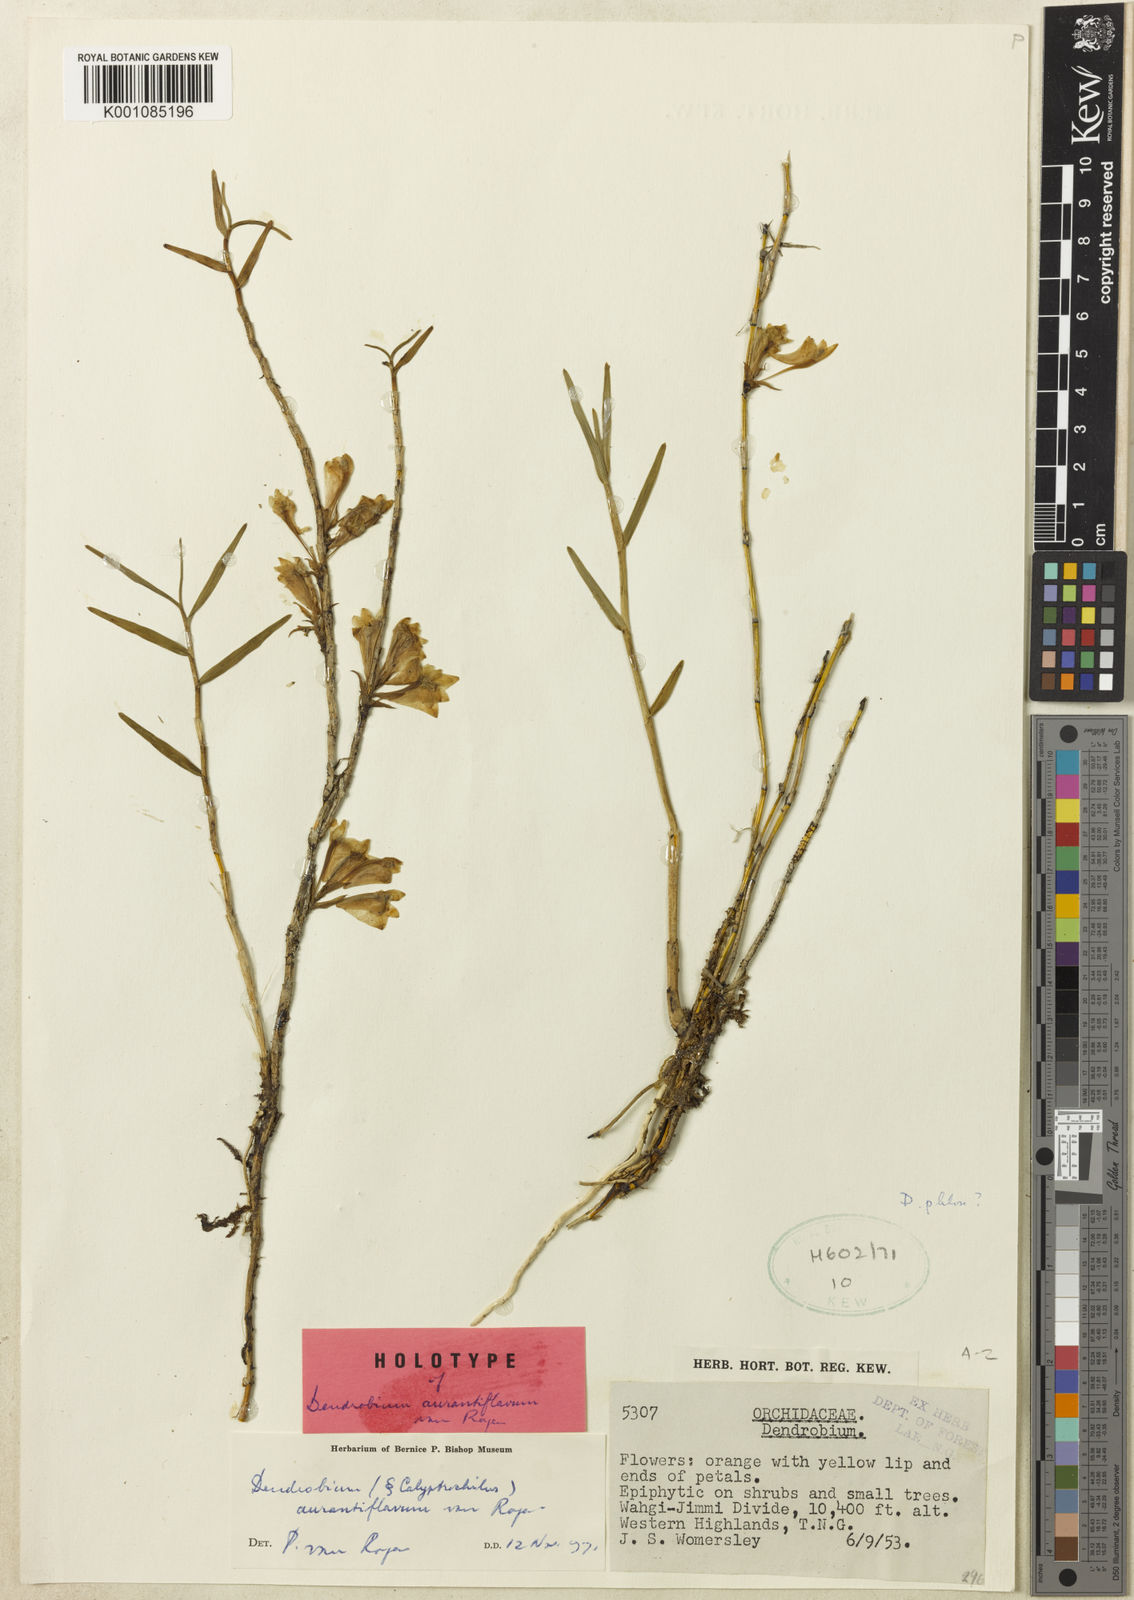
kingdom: Plantae
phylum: Tracheophyta
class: Liliopsida
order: Asparagales
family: Orchidaceae
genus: Dendrobium
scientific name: Dendrobium subclausum
